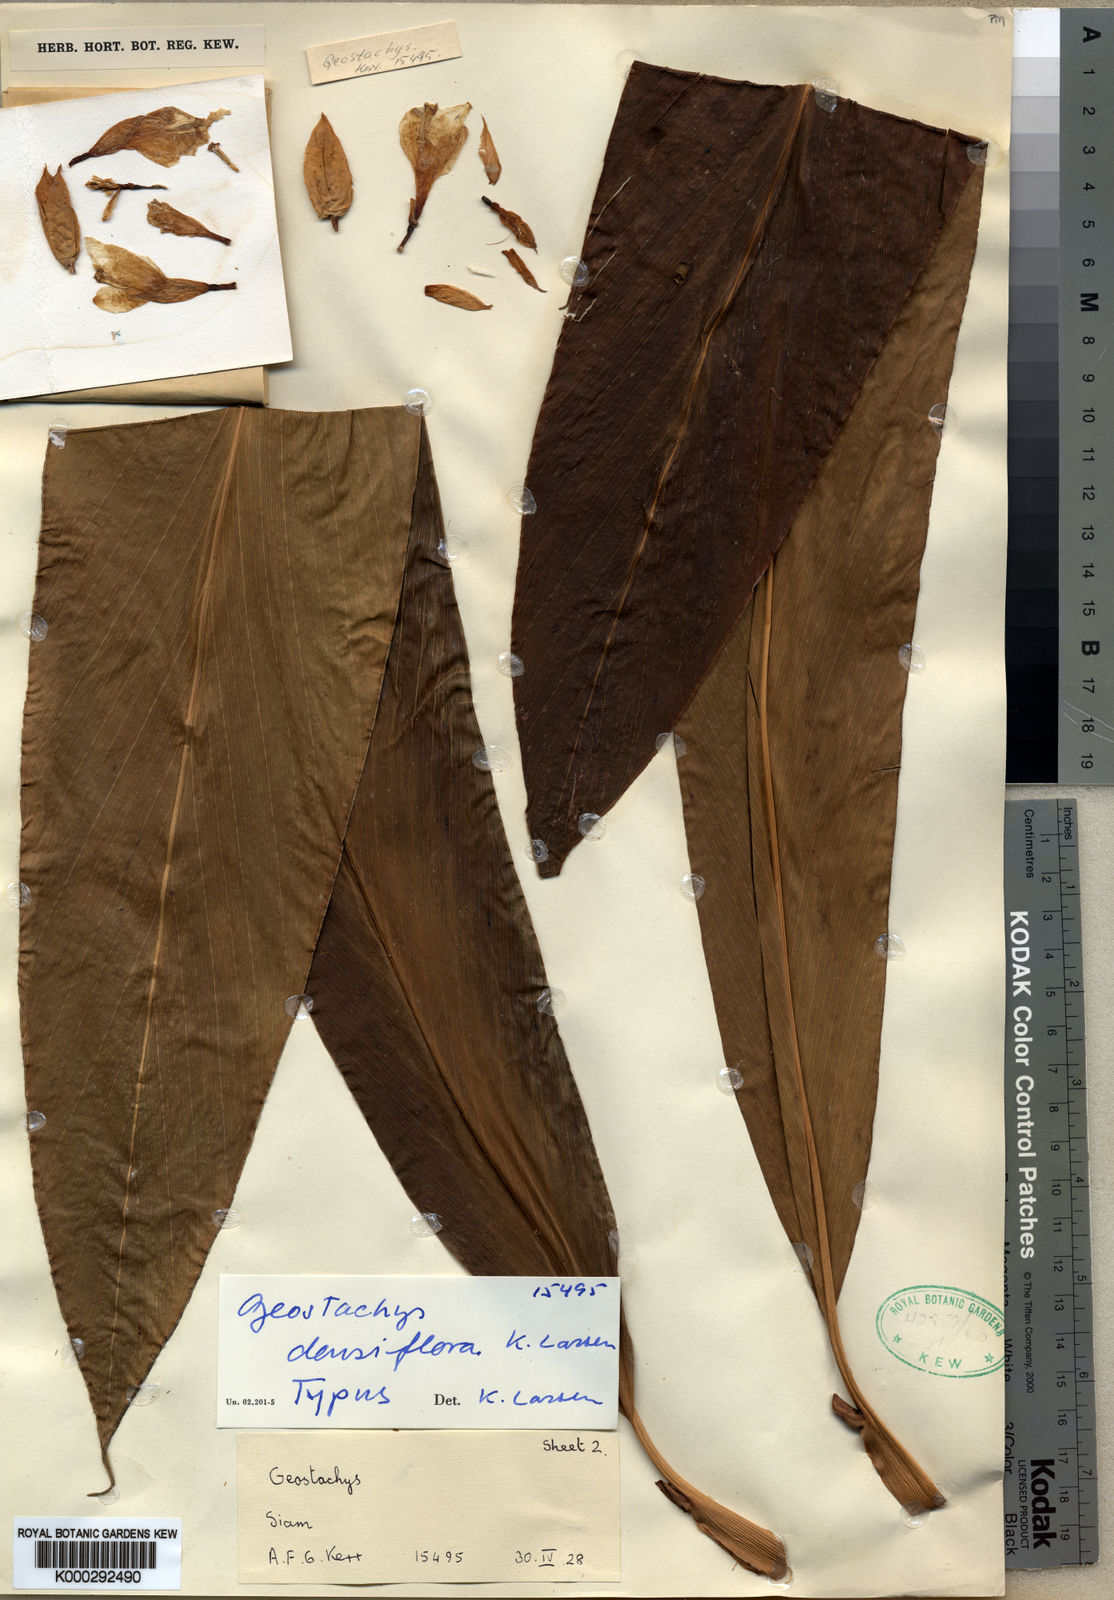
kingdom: Plantae
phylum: Tracheophyta
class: Liliopsida
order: Zingiberales
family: Zingiberaceae
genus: Geostachys
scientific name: Geostachys kerrii
